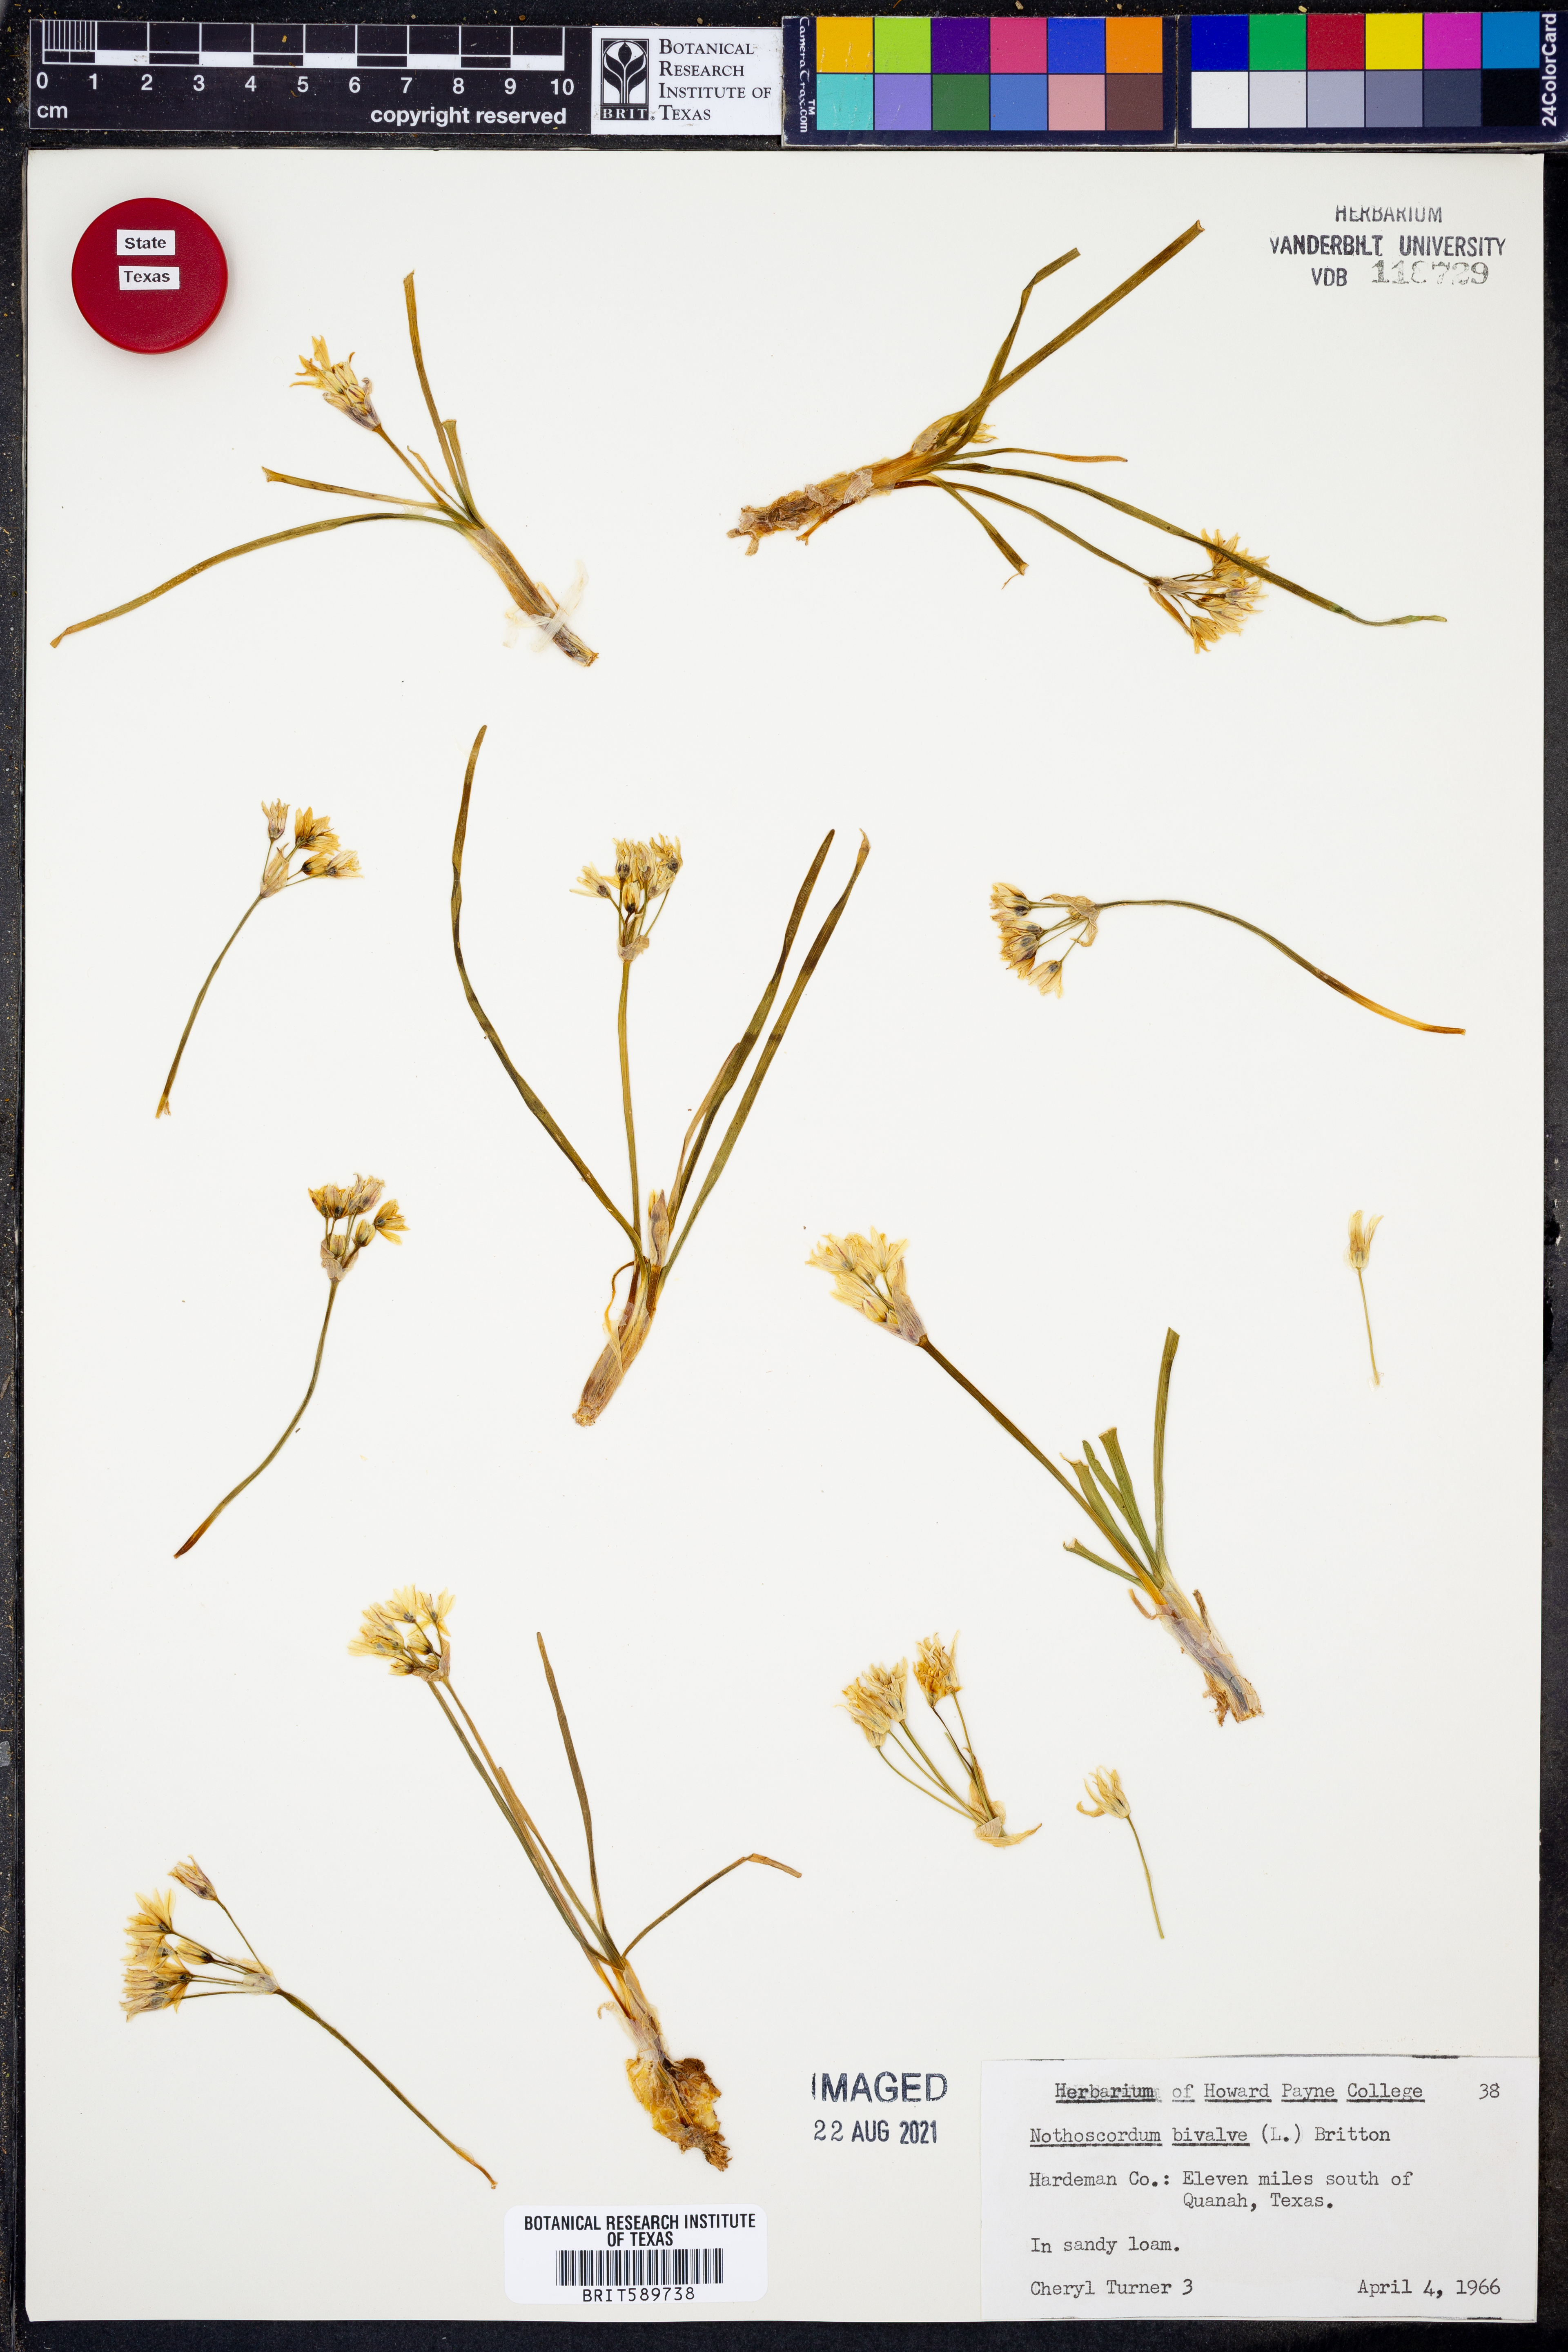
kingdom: Plantae
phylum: Tracheophyta
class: Liliopsida
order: Asparagales
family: Amaryllidaceae
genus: Nothoscordum
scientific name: Nothoscordum bivalve
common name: Crow-poison
